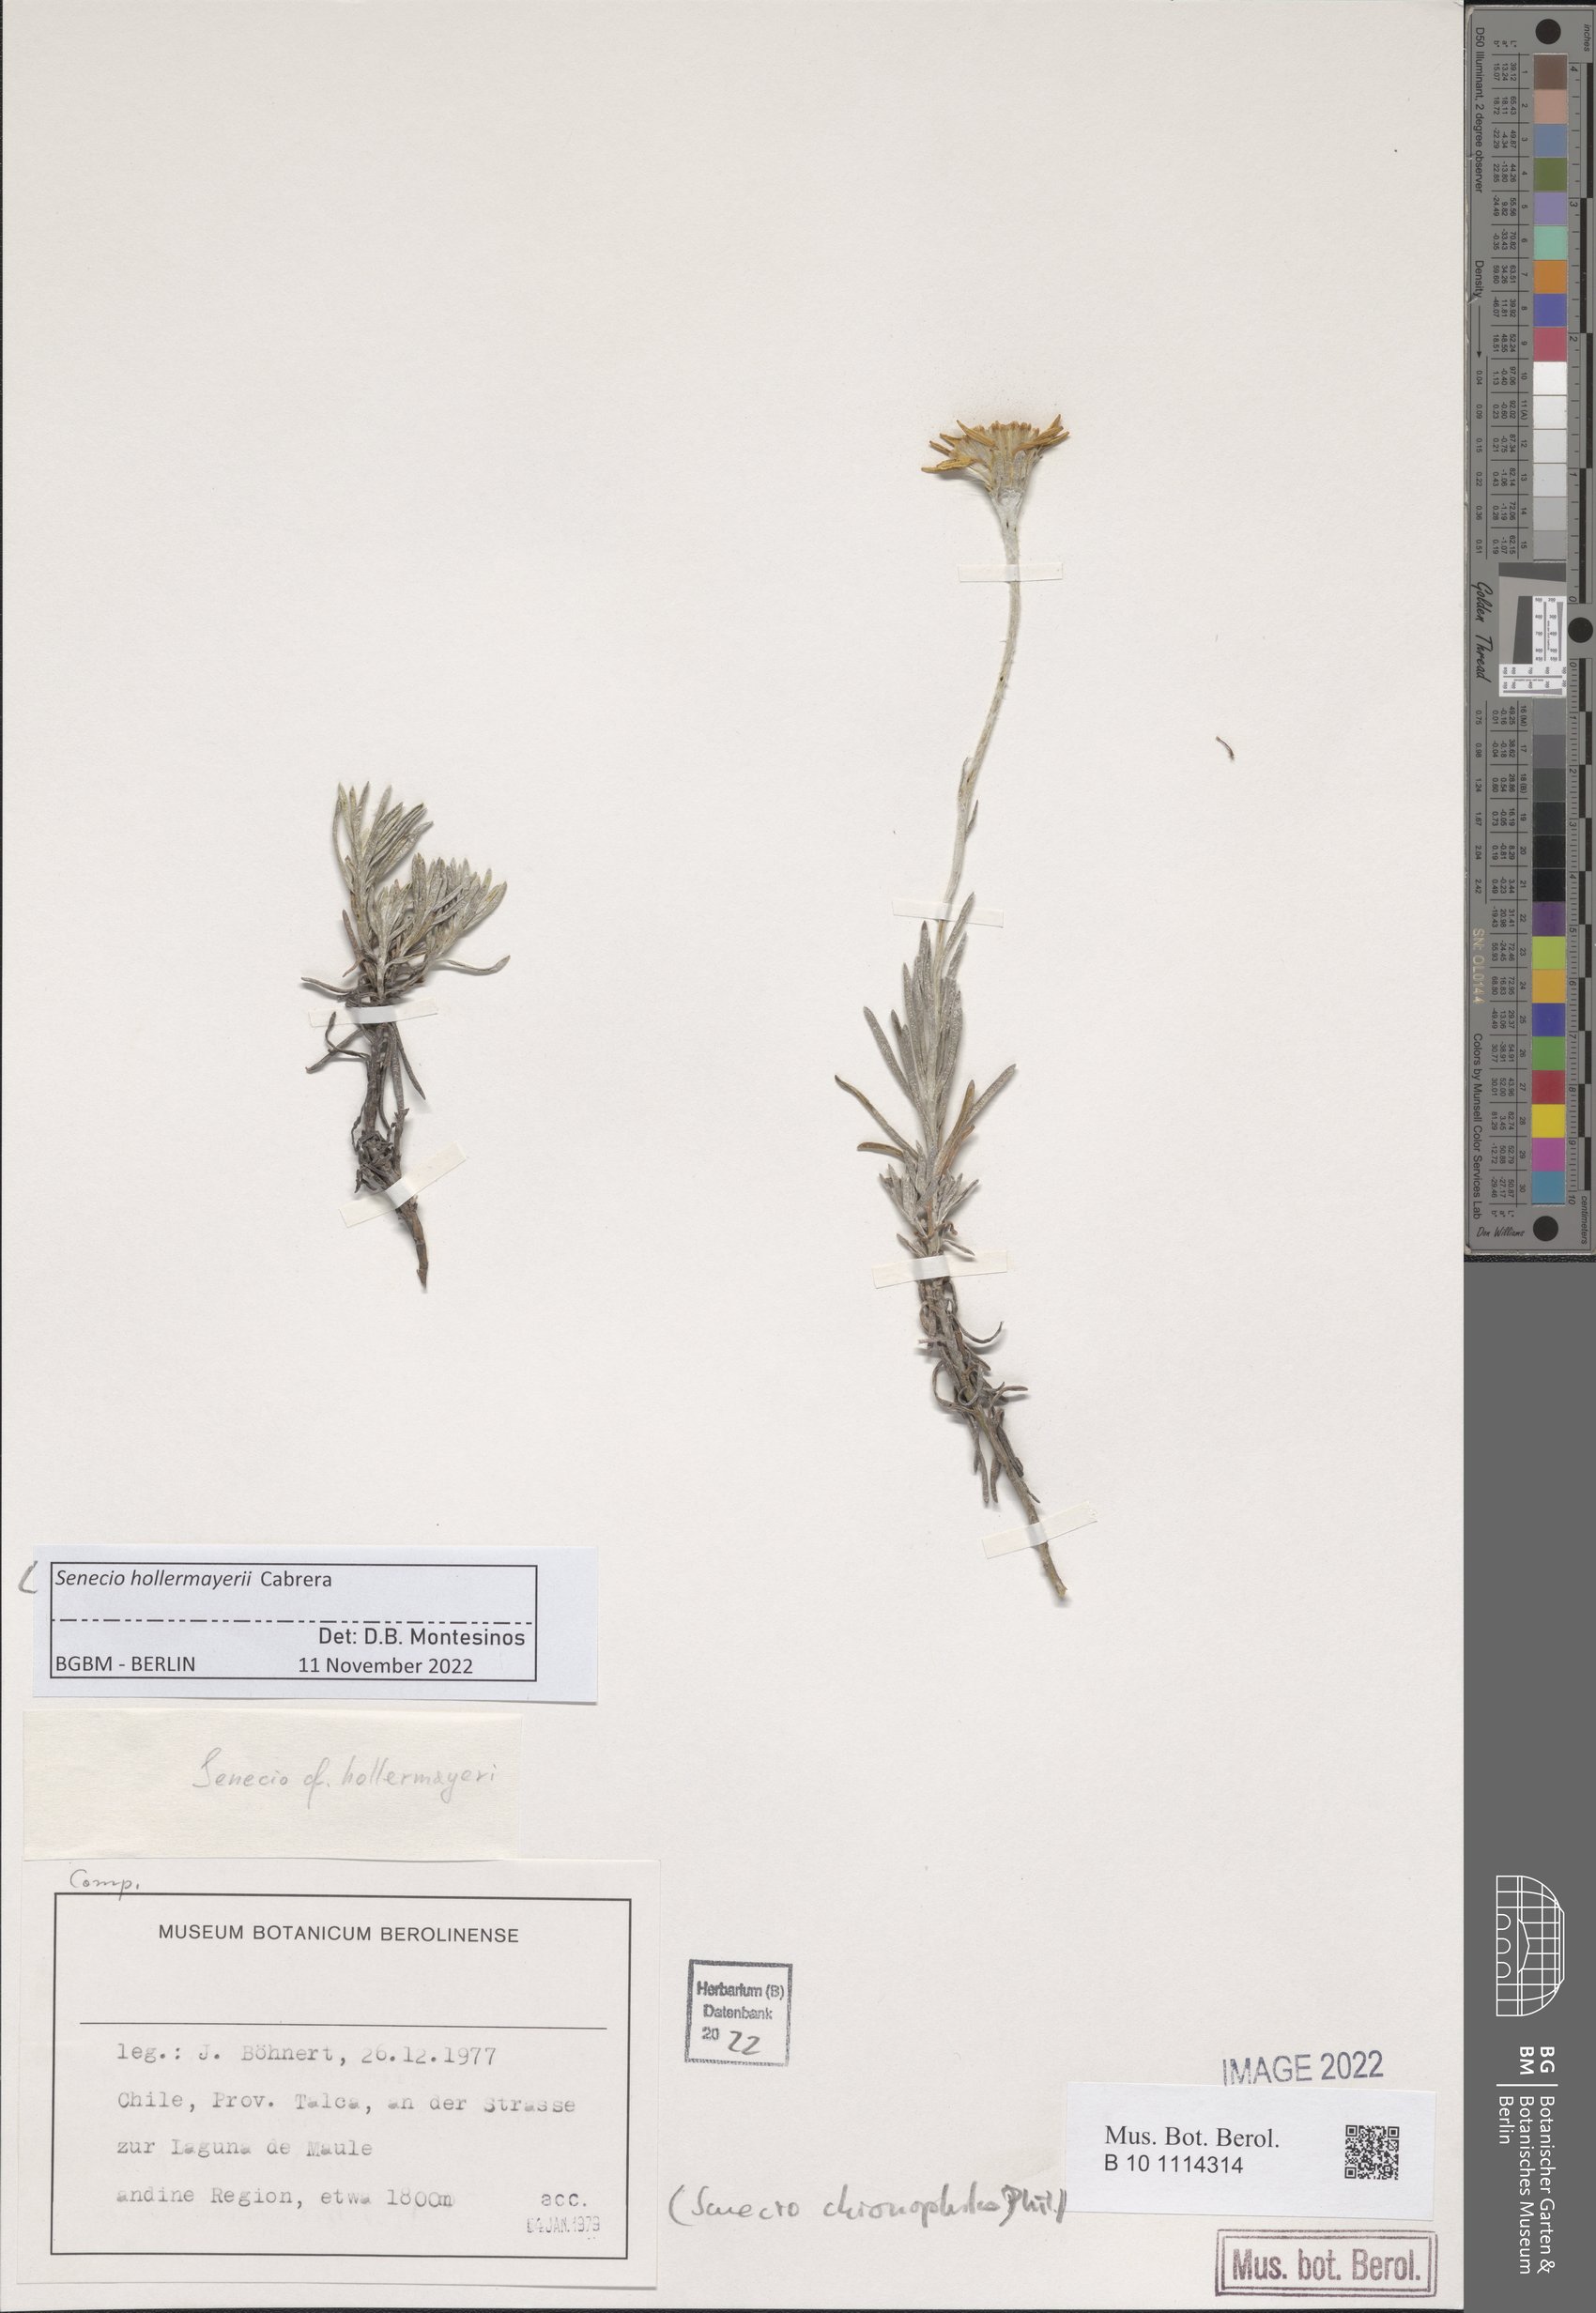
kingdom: Plantae
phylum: Tracheophyta
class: Magnoliopsida
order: Asterales
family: Asteraceae
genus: Senecio
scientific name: Senecio chionophilus
